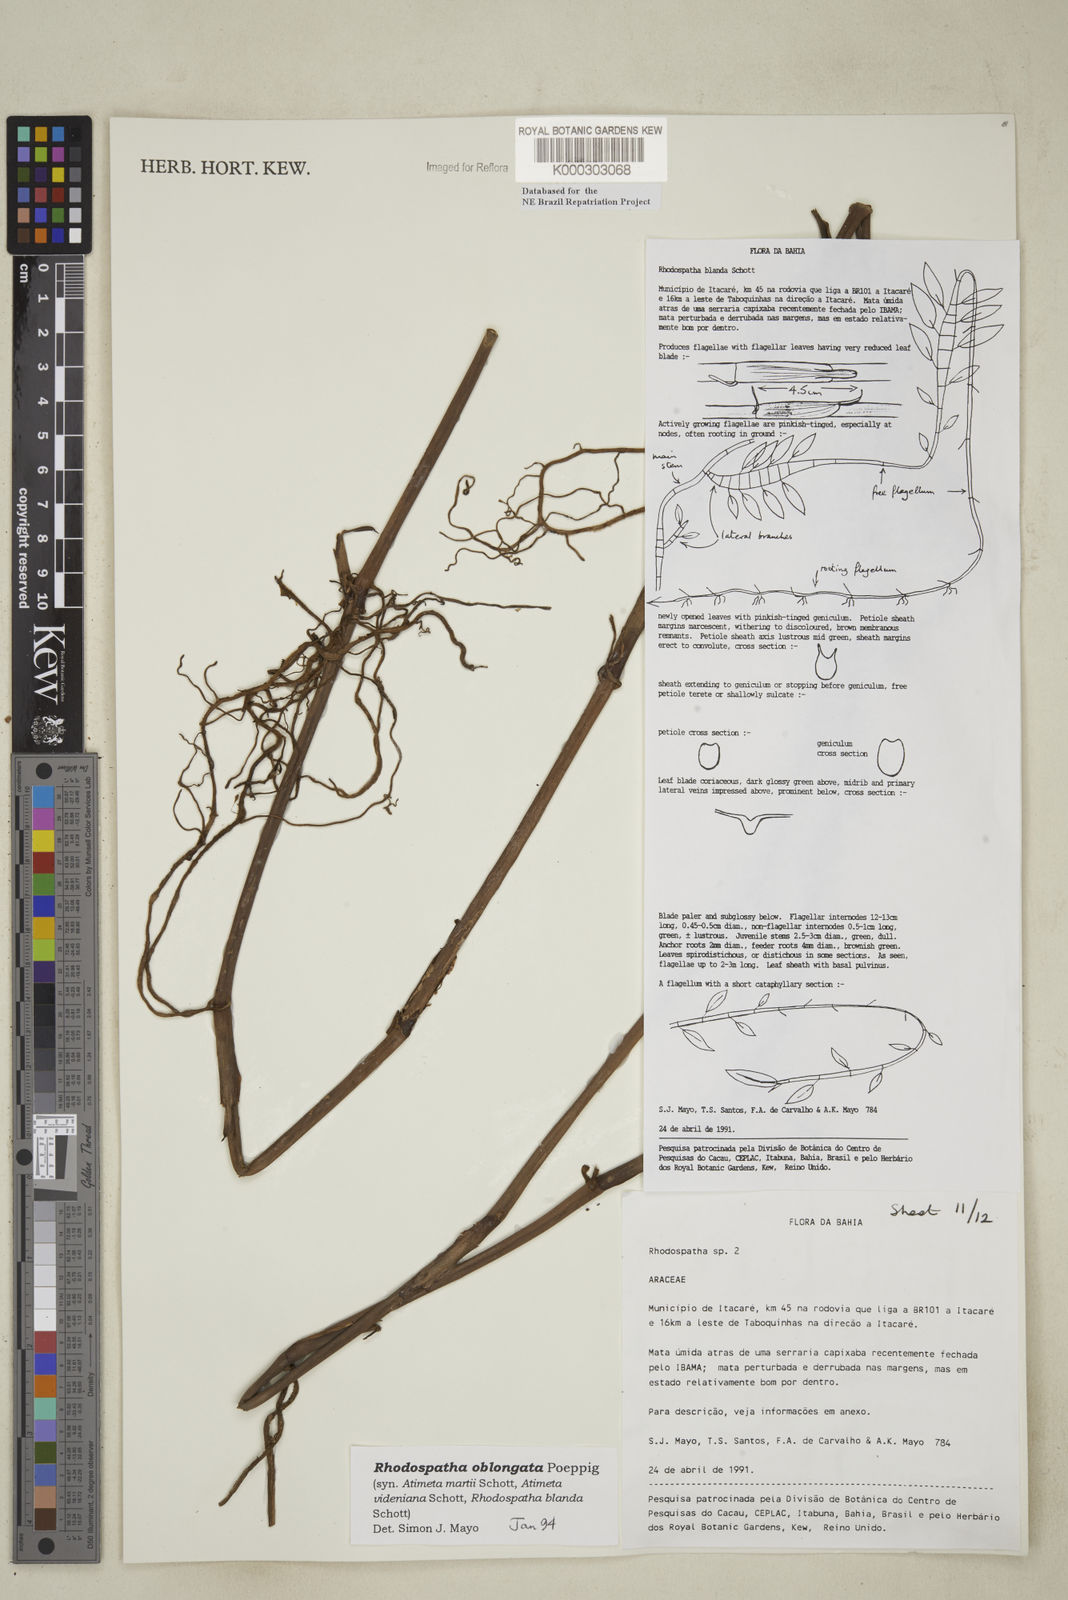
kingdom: Plantae
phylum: Tracheophyta
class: Liliopsida
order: Alismatales
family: Araceae
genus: Rhodospatha
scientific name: Rhodospatha oblongata
